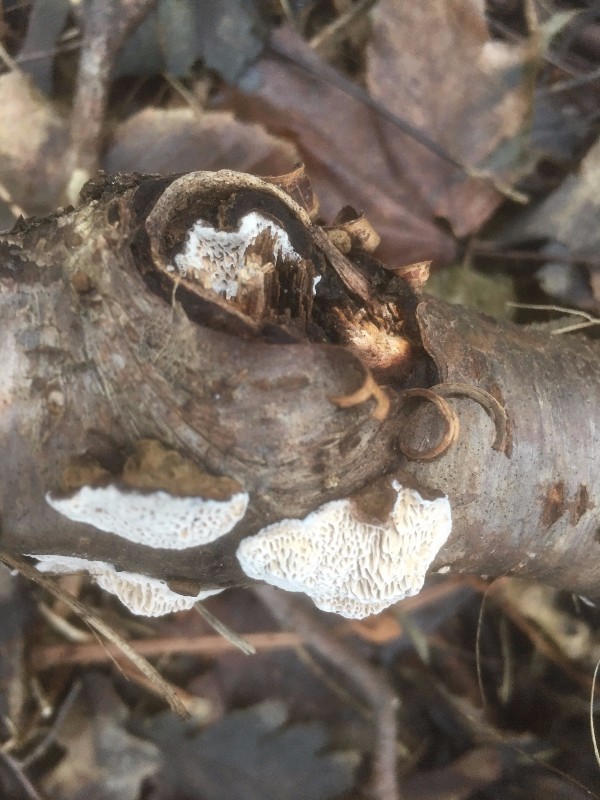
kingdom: Fungi
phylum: Basidiomycota
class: Agaricomycetes
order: Polyporales
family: Polyporaceae
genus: Podofomes
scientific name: Podofomes mollis
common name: blød begporesvamp
